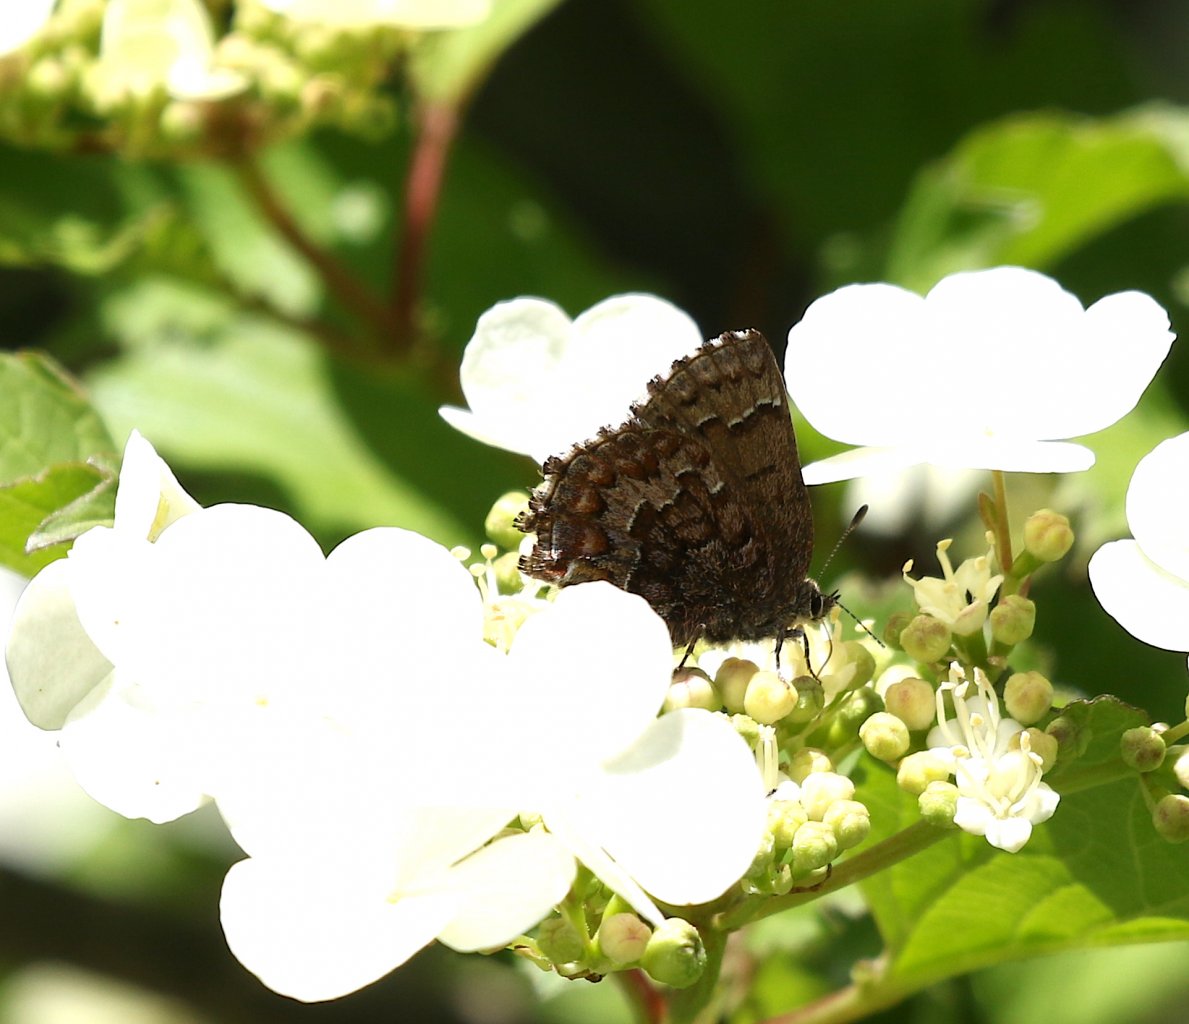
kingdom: Animalia
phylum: Arthropoda
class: Insecta
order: Lepidoptera
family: Lycaenidae
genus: Incisalia
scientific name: Incisalia niphon
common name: Eastern Pine Elfin
